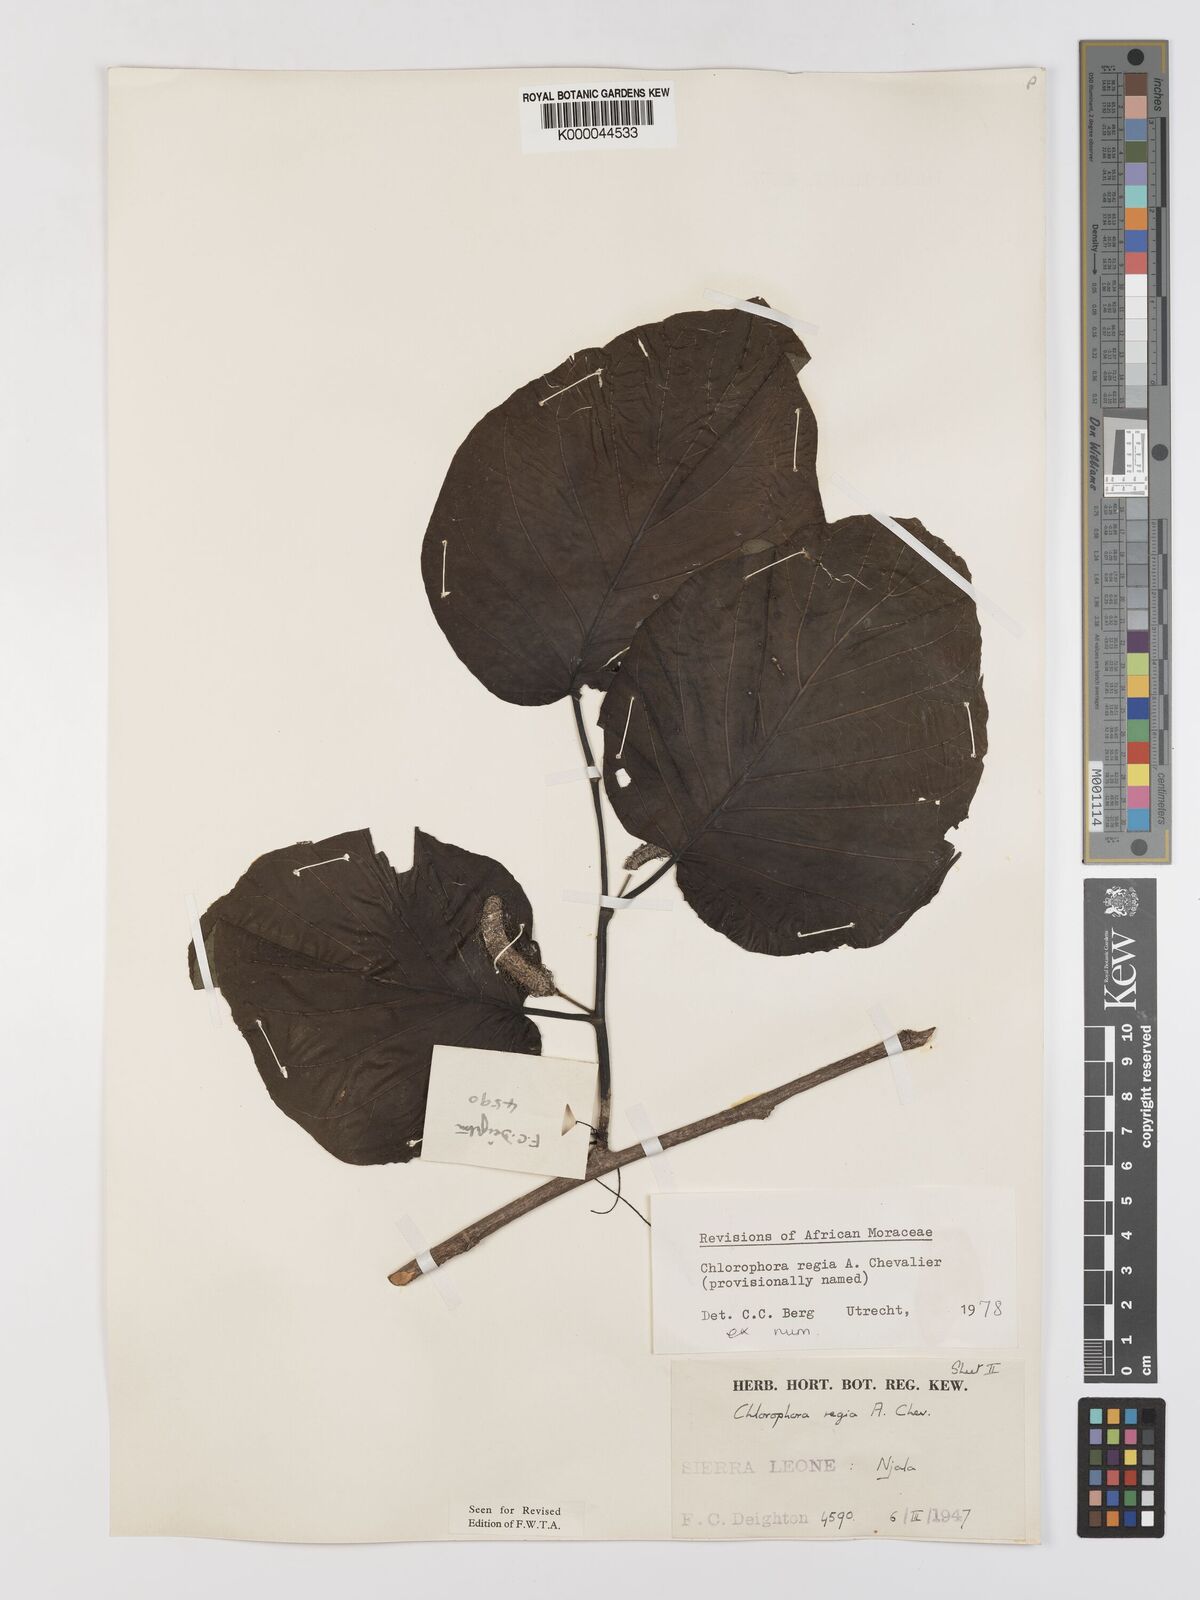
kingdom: Plantae
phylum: Tracheophyta
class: Magnoliopsida
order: Rosales
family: Moraceae
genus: Milicia
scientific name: Milicia regia
